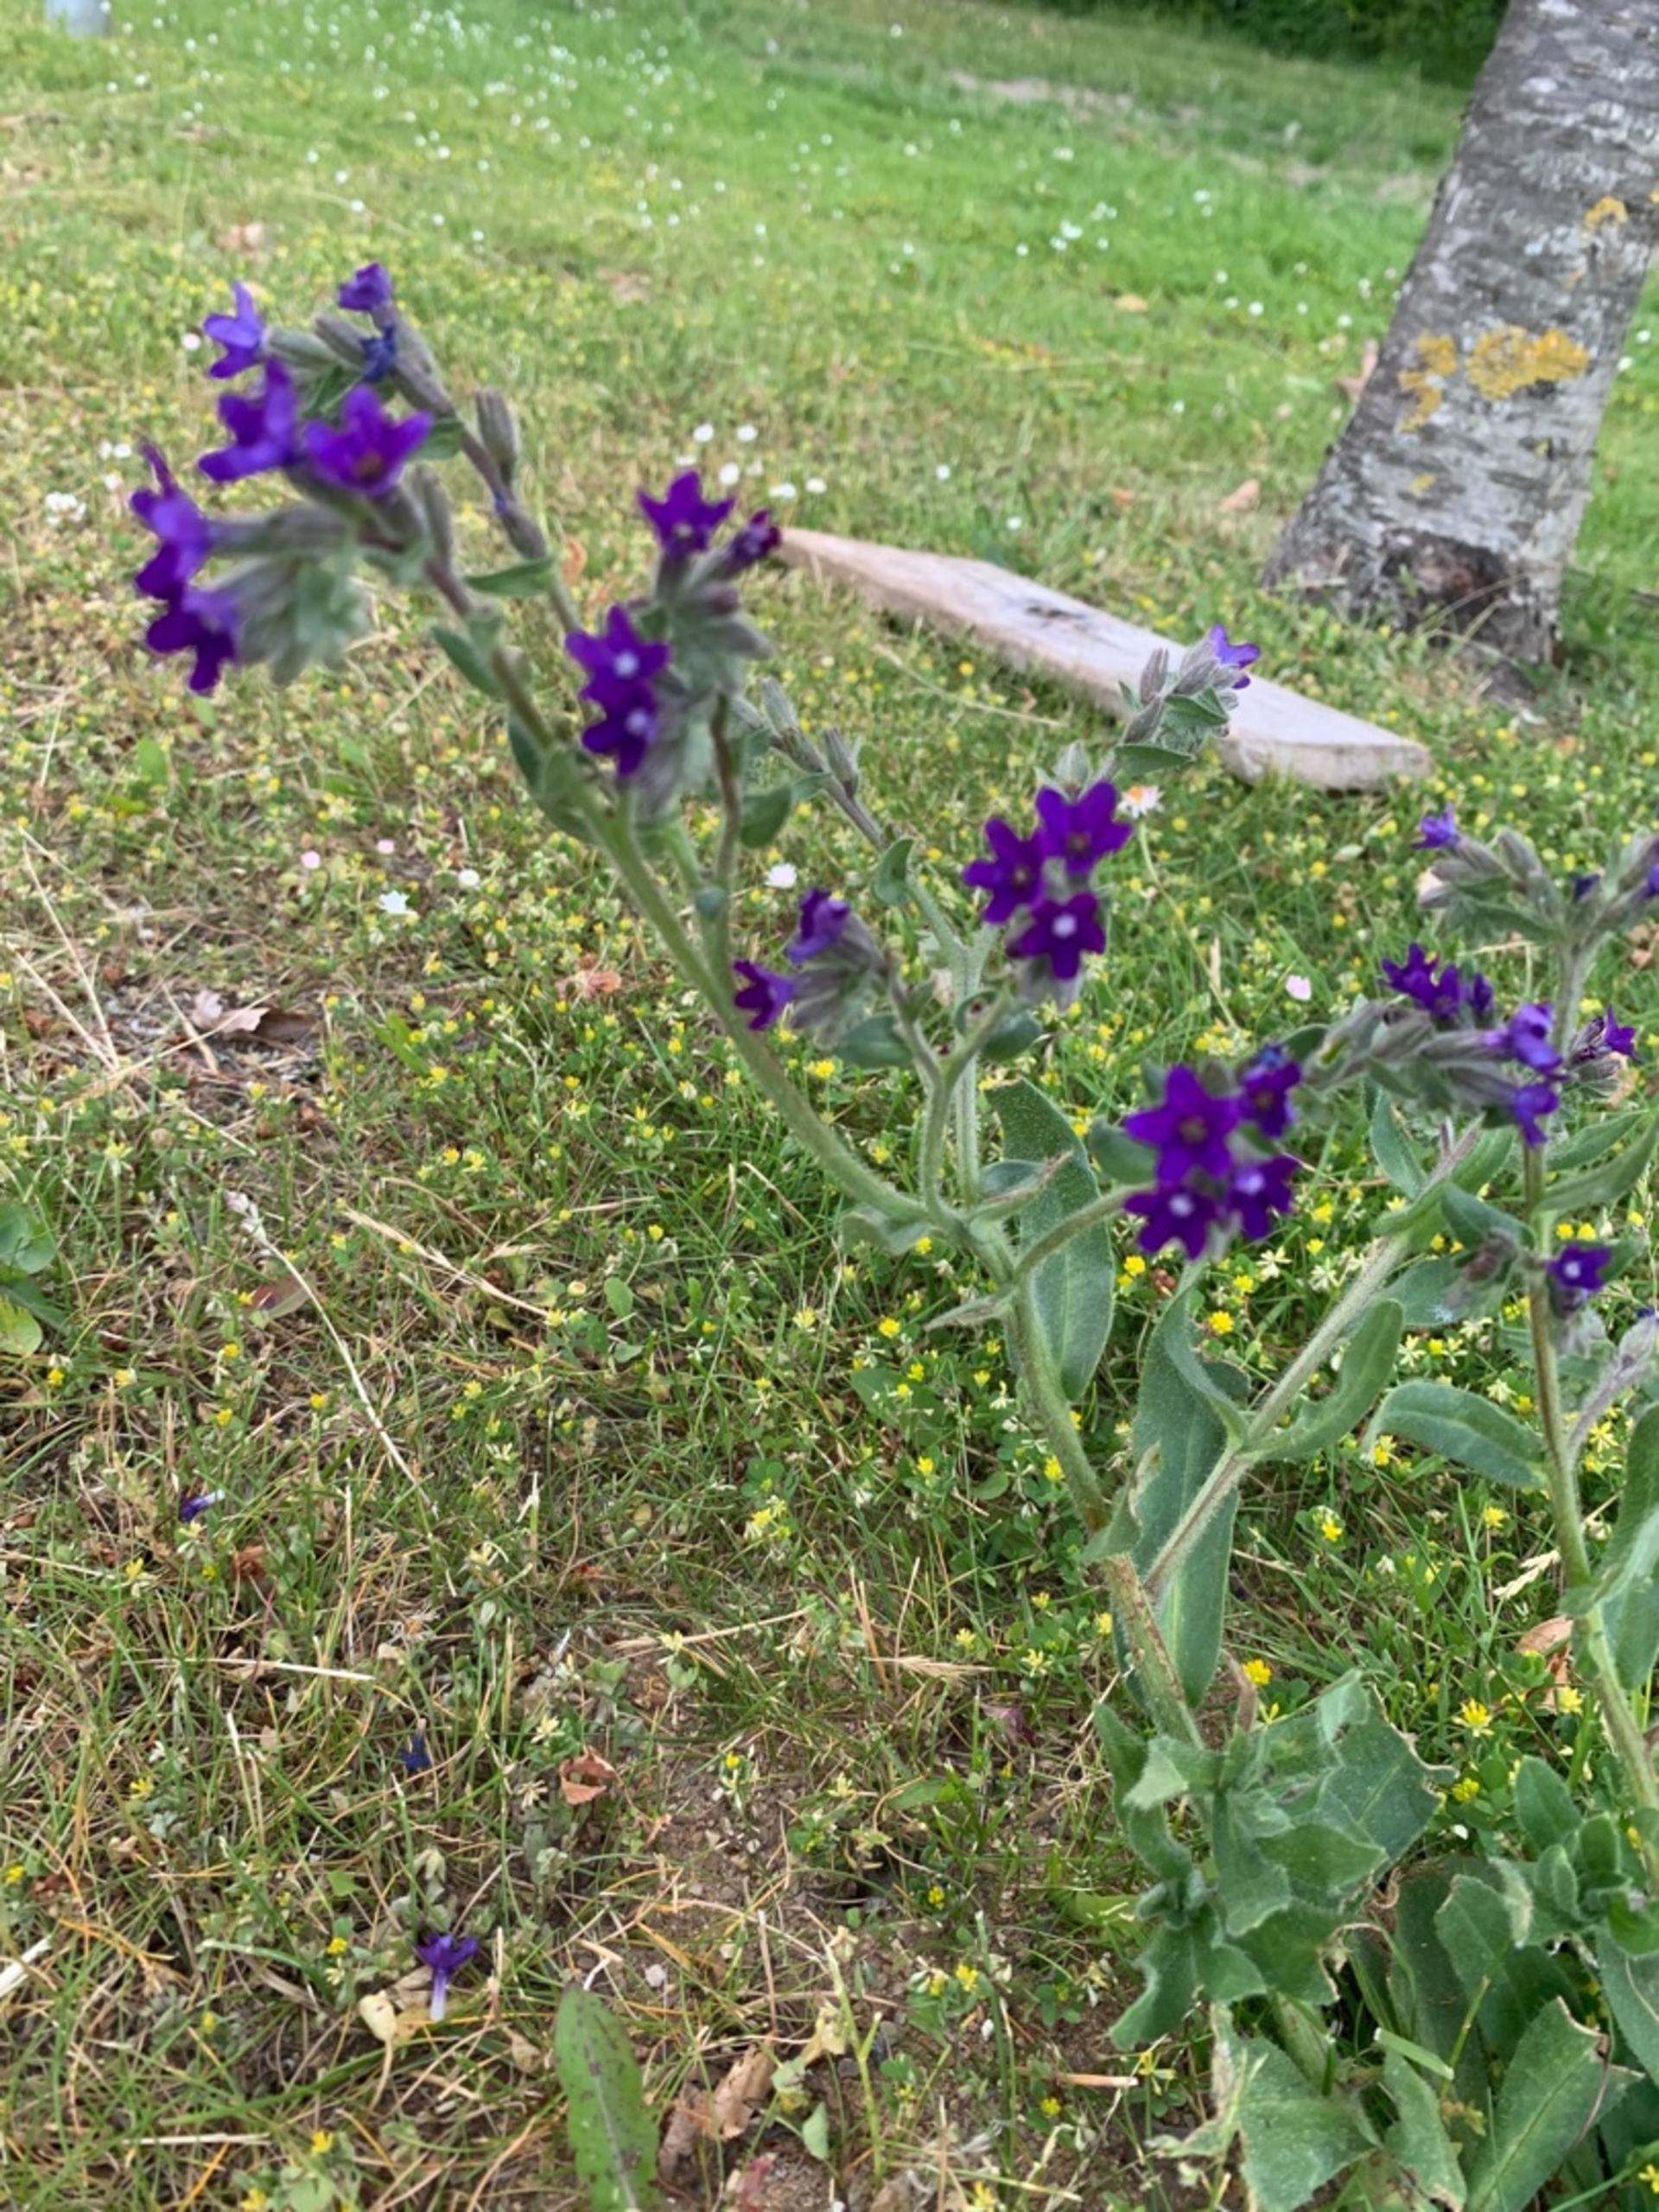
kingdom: Plantae
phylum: Tracheophyta
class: Magnoliopsida
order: Boraginales
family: Boraginaceae
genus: Anchusa
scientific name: Anchusa officinalis
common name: Læge-oksetunge
